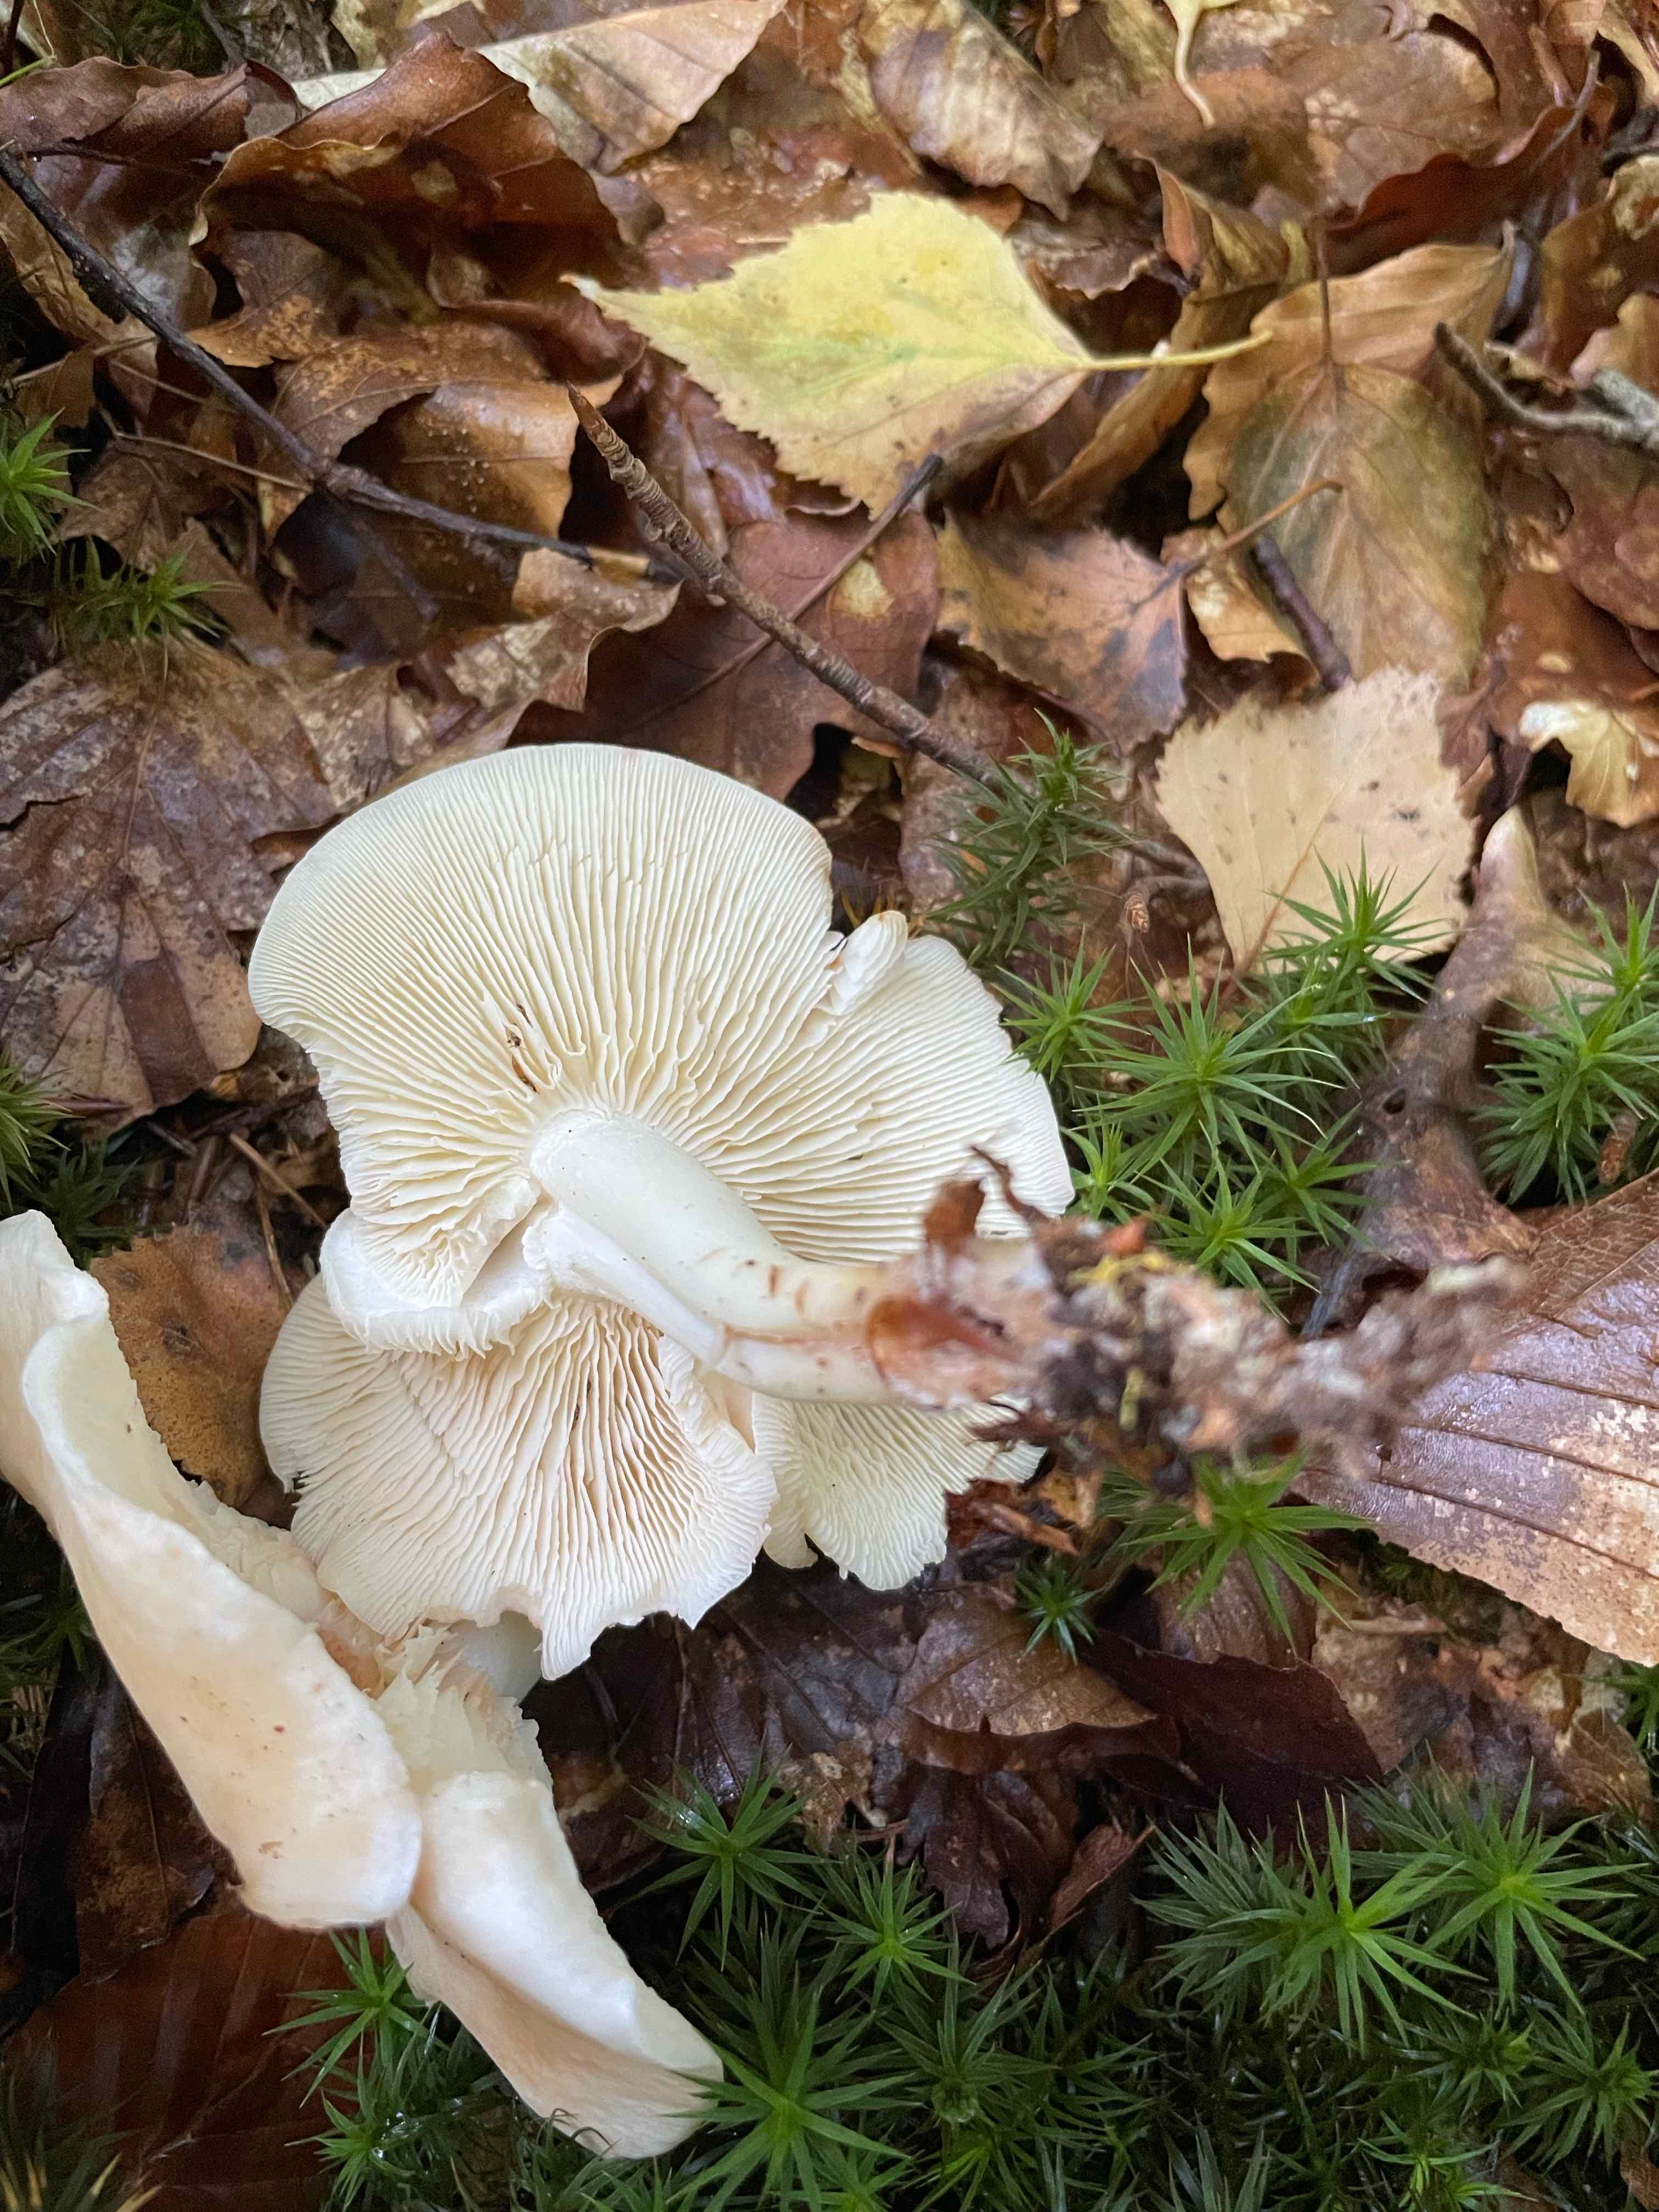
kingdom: Fungi
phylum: Basidiomycota
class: Agaricomycetes
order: Agaricales
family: Omphalotaceae
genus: Rhodocollybia
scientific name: Rhodocollybia maculata
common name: plettet fladhat
